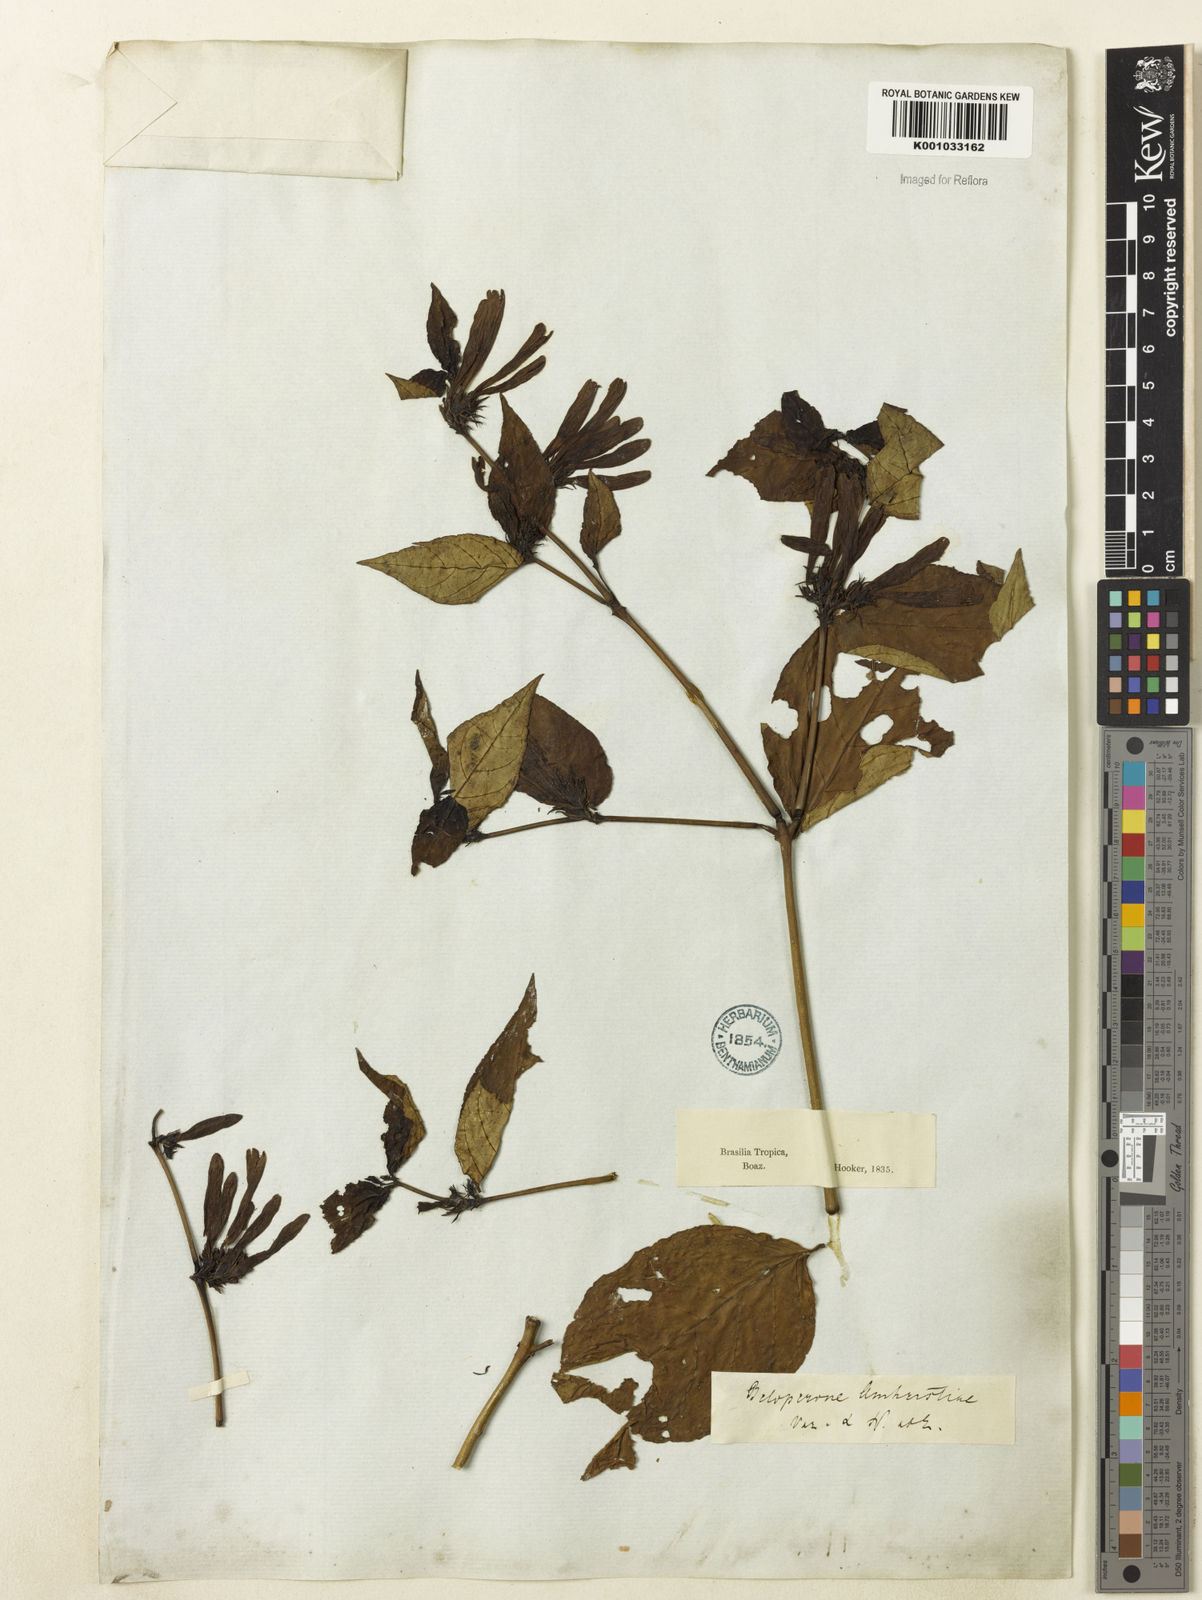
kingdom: Plantae
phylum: Tracheophyta
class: Magnoliopsida
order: Lamiales
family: Acanthaceae
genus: Justicia
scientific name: Justicia brasiliana
